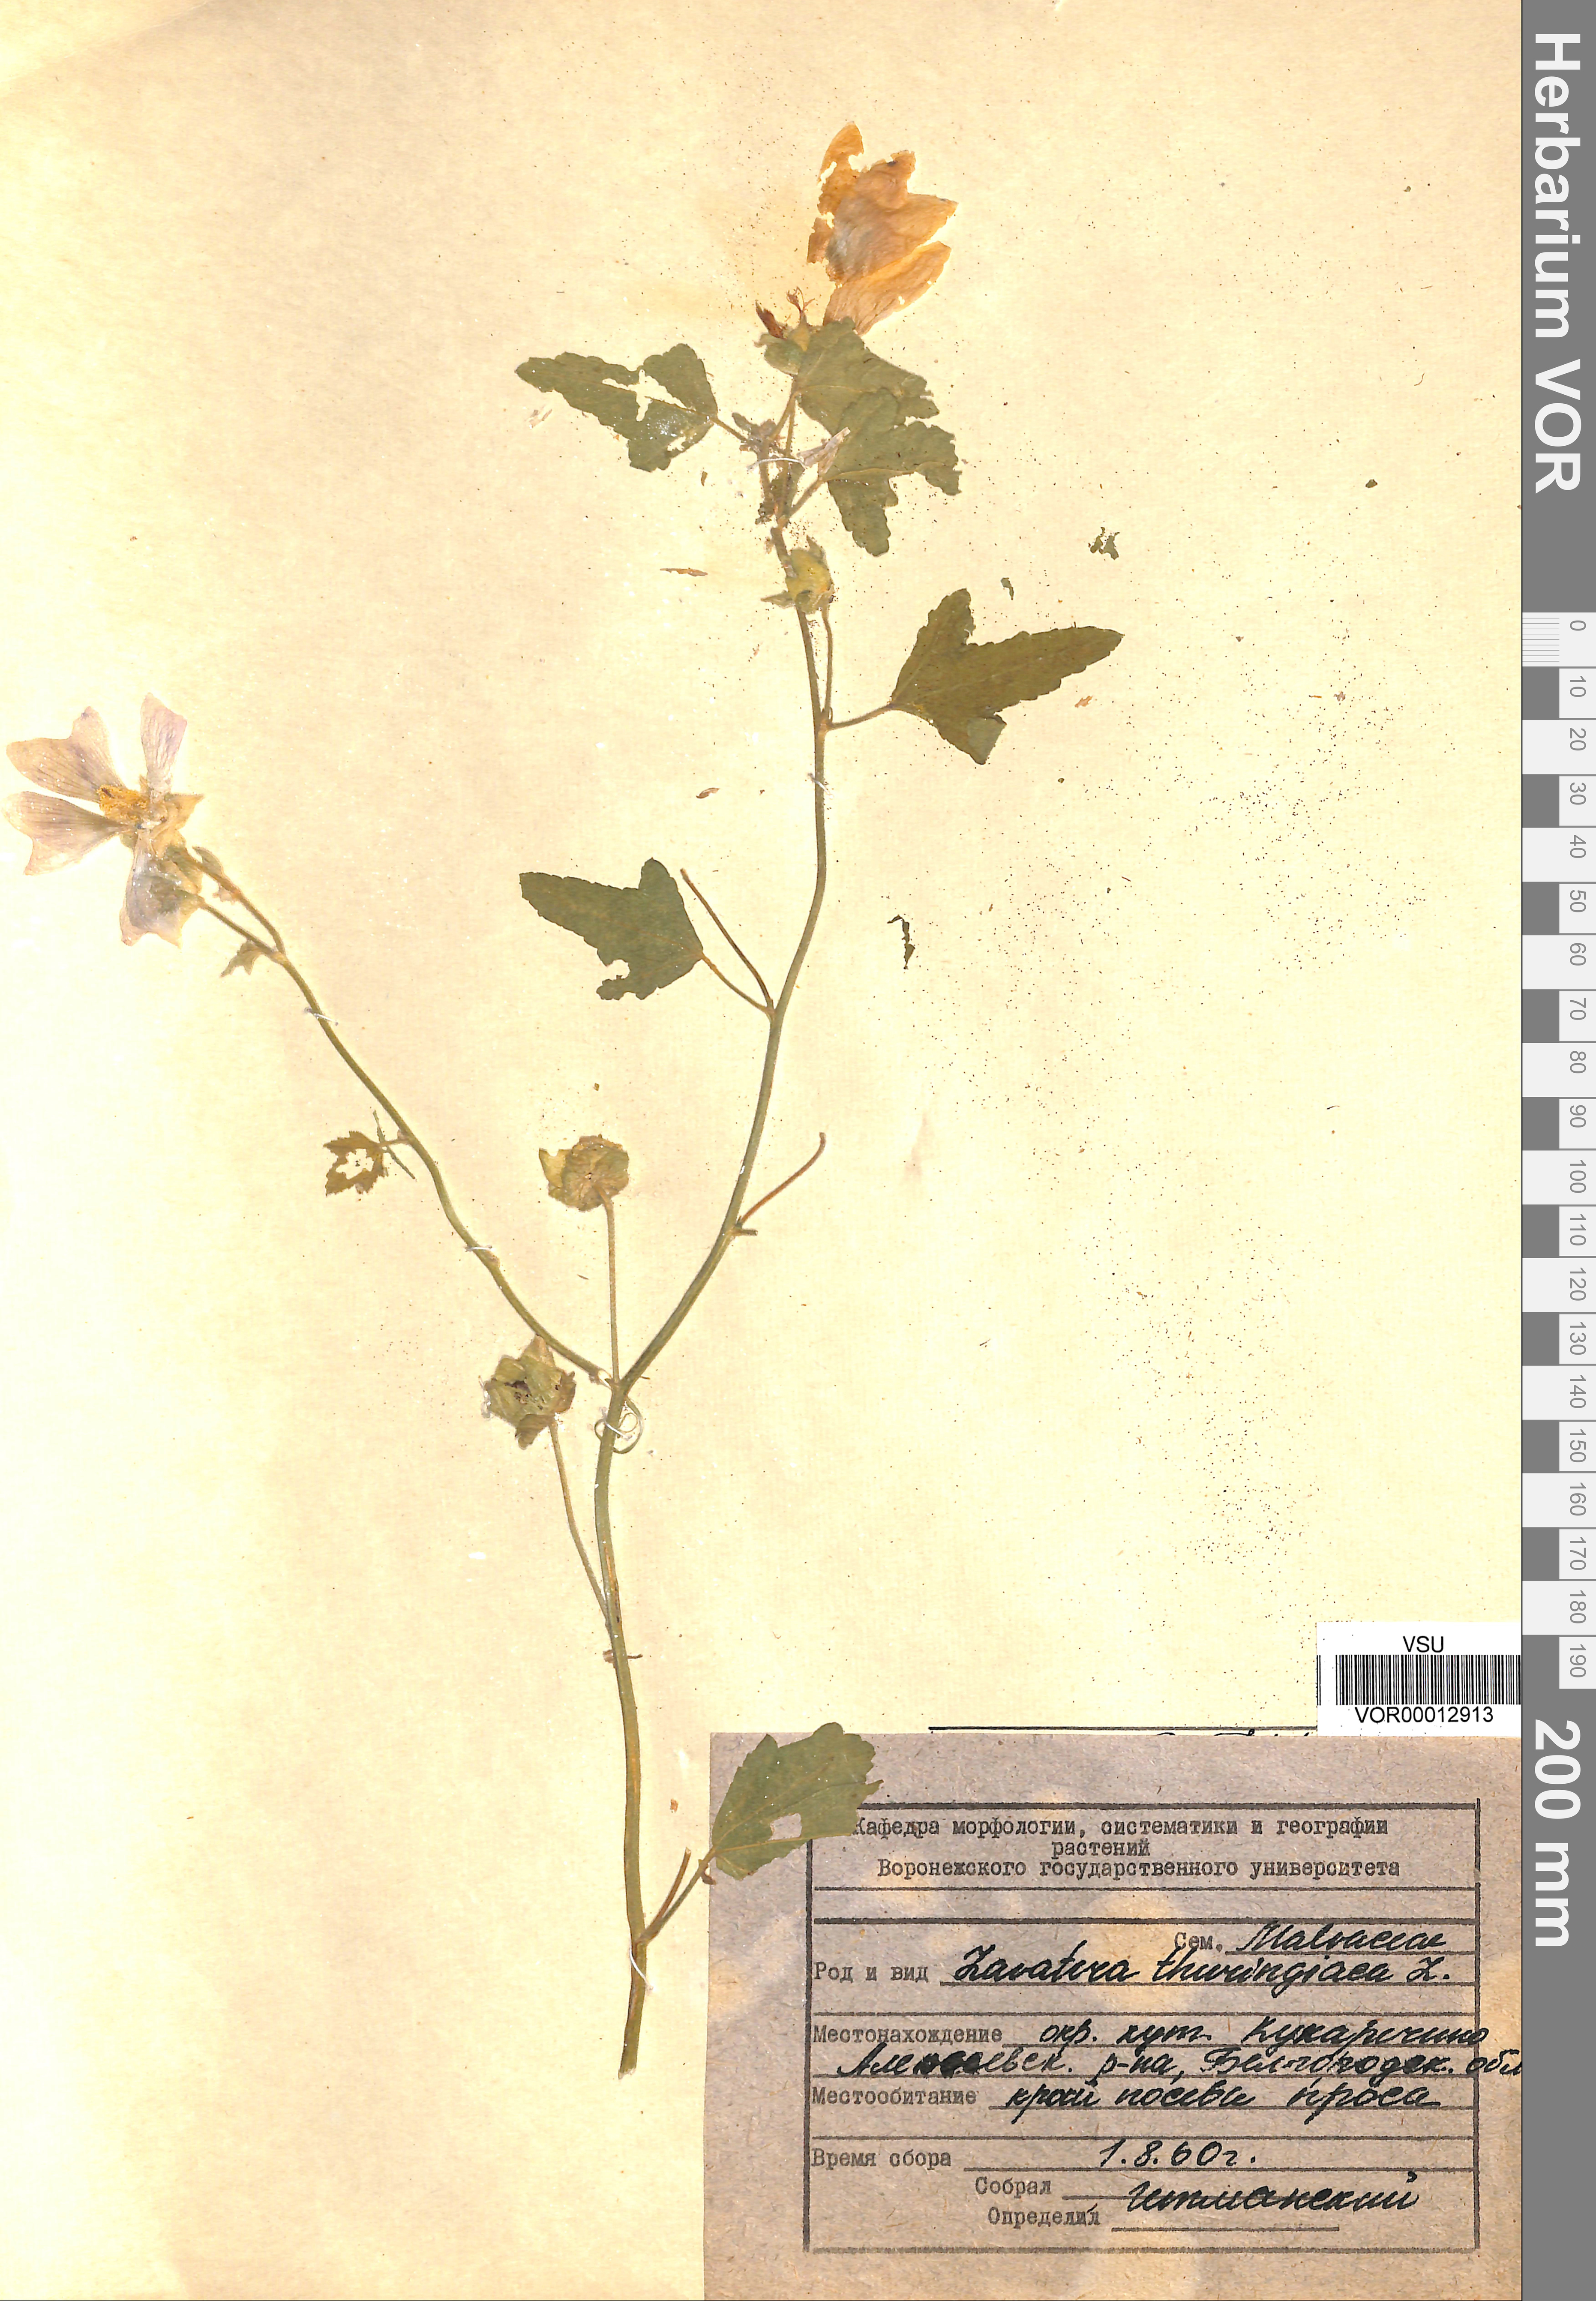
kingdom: Plantae
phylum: Tracheophyta
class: Magnoliopsida
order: Malvales
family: Malvaceae
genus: Malva
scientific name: Malva thuringiaca
